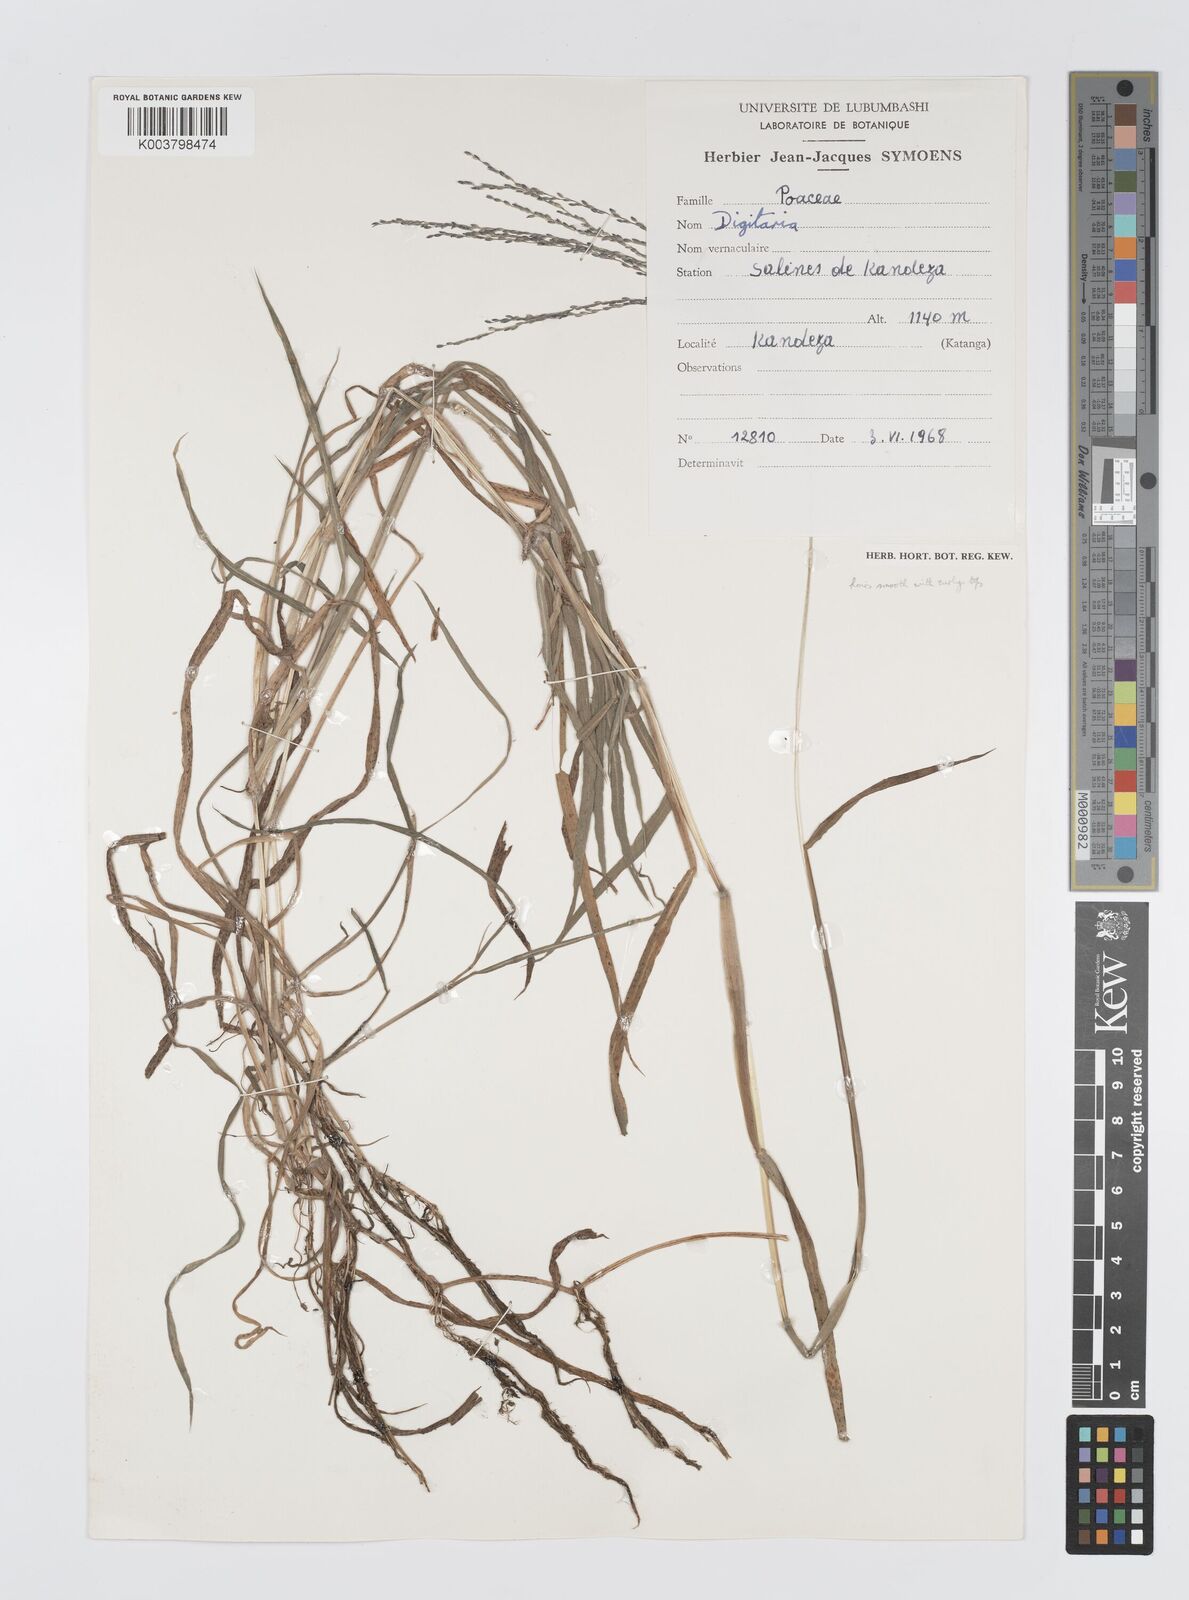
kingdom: Plantae
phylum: Tracheophyta
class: Liliopsida
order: Poales
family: Poaceae
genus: Digitaria
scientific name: Digitaria leptorhachis
